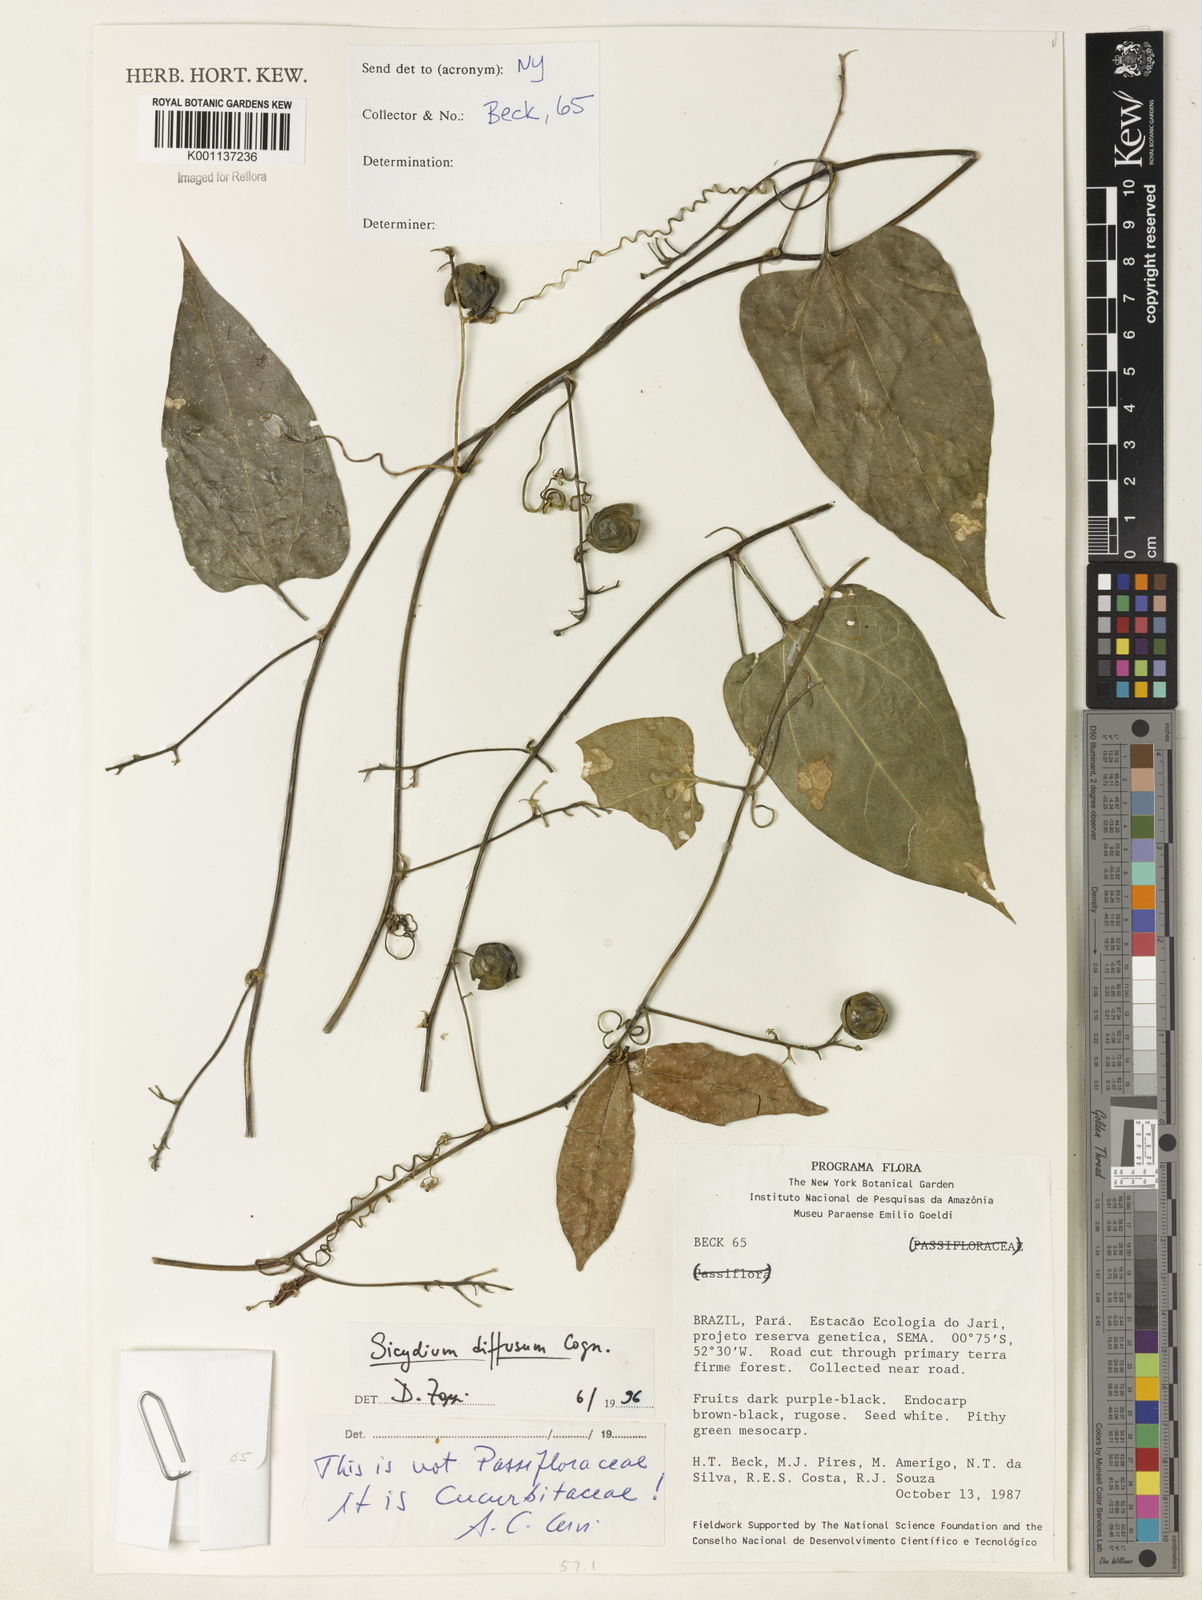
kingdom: Plantae
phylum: Tracheophyta
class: Magnoliopsida
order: Cucurbitales
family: Cucurbitaceae
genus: Sicydium
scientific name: Sicydium diffusum
